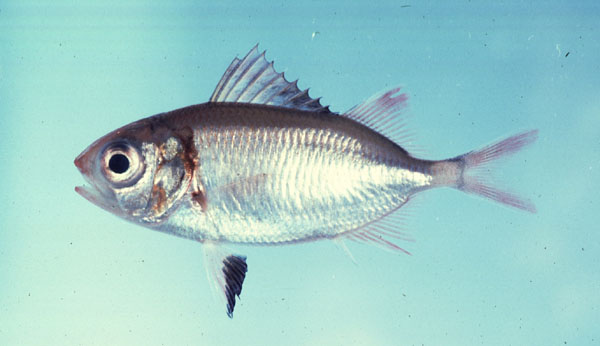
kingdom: Animalia
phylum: Chordata
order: Beryciformes
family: Holocentridae
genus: Myripristis
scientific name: Myripristis
